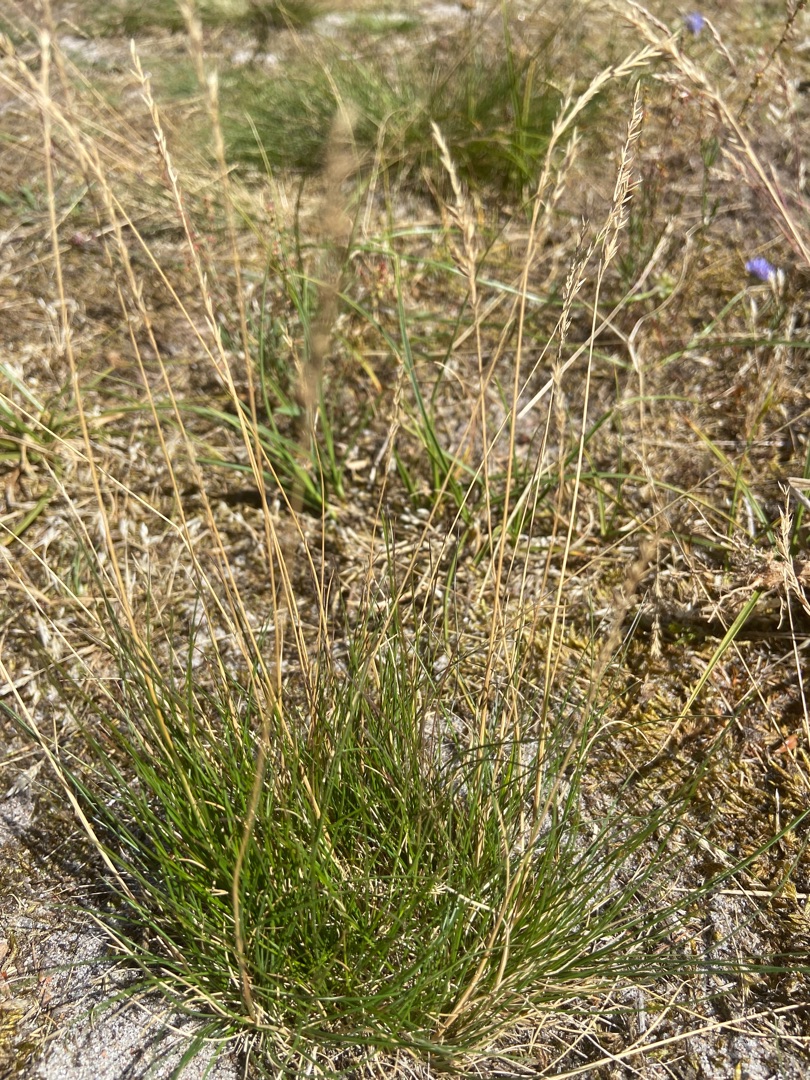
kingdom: Plantae
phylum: Tracheophyta
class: Liliopsida
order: Poales
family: Poaceae
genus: Festuca
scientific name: Festuca
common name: Svingelslægten
